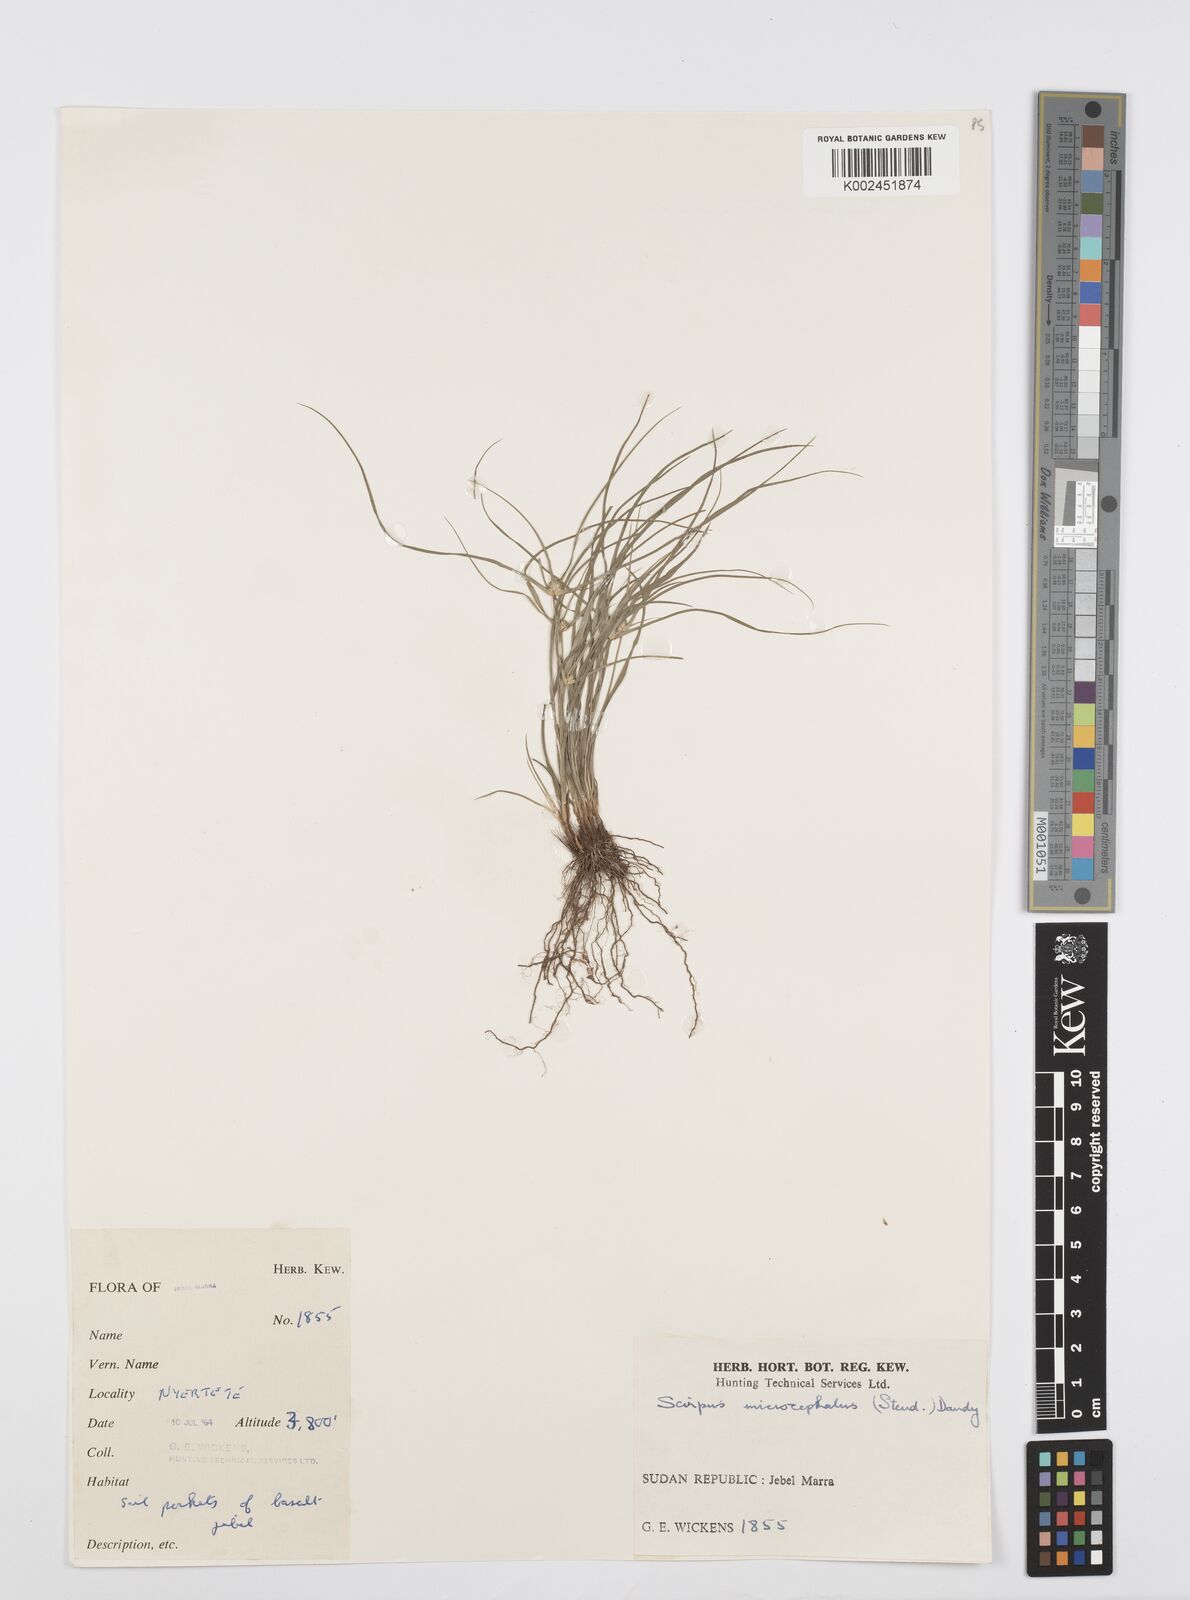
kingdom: Plantae
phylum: Tracheophyta
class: Liliopsida
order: Poales
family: Cyperaceae
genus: Cyperus
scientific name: Cyperus microcephalus
